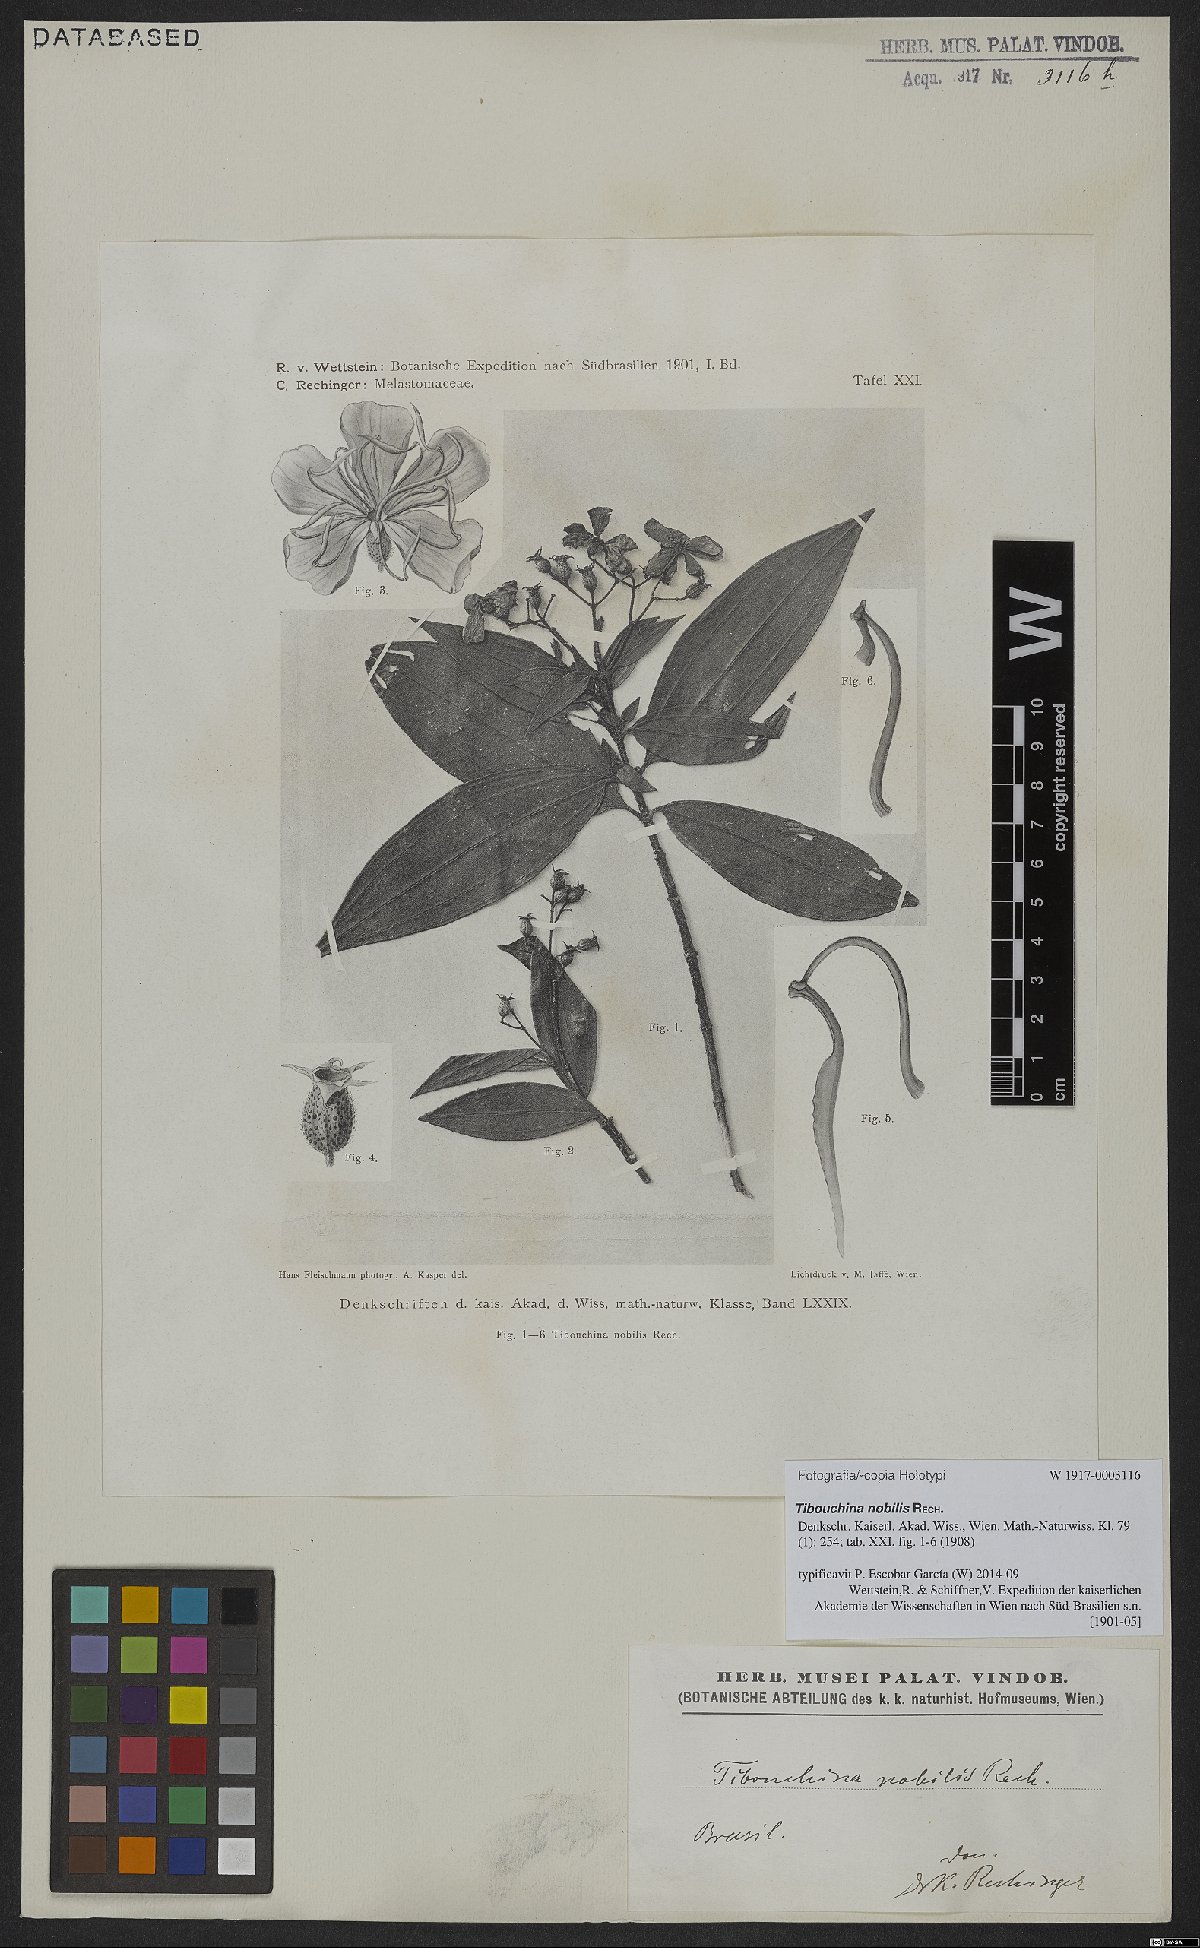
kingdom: Plantae
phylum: Tracheophyta
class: Magnoliopsida
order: Myrtales
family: Melastomataceae
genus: Miconia
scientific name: Miconia leaechinata
